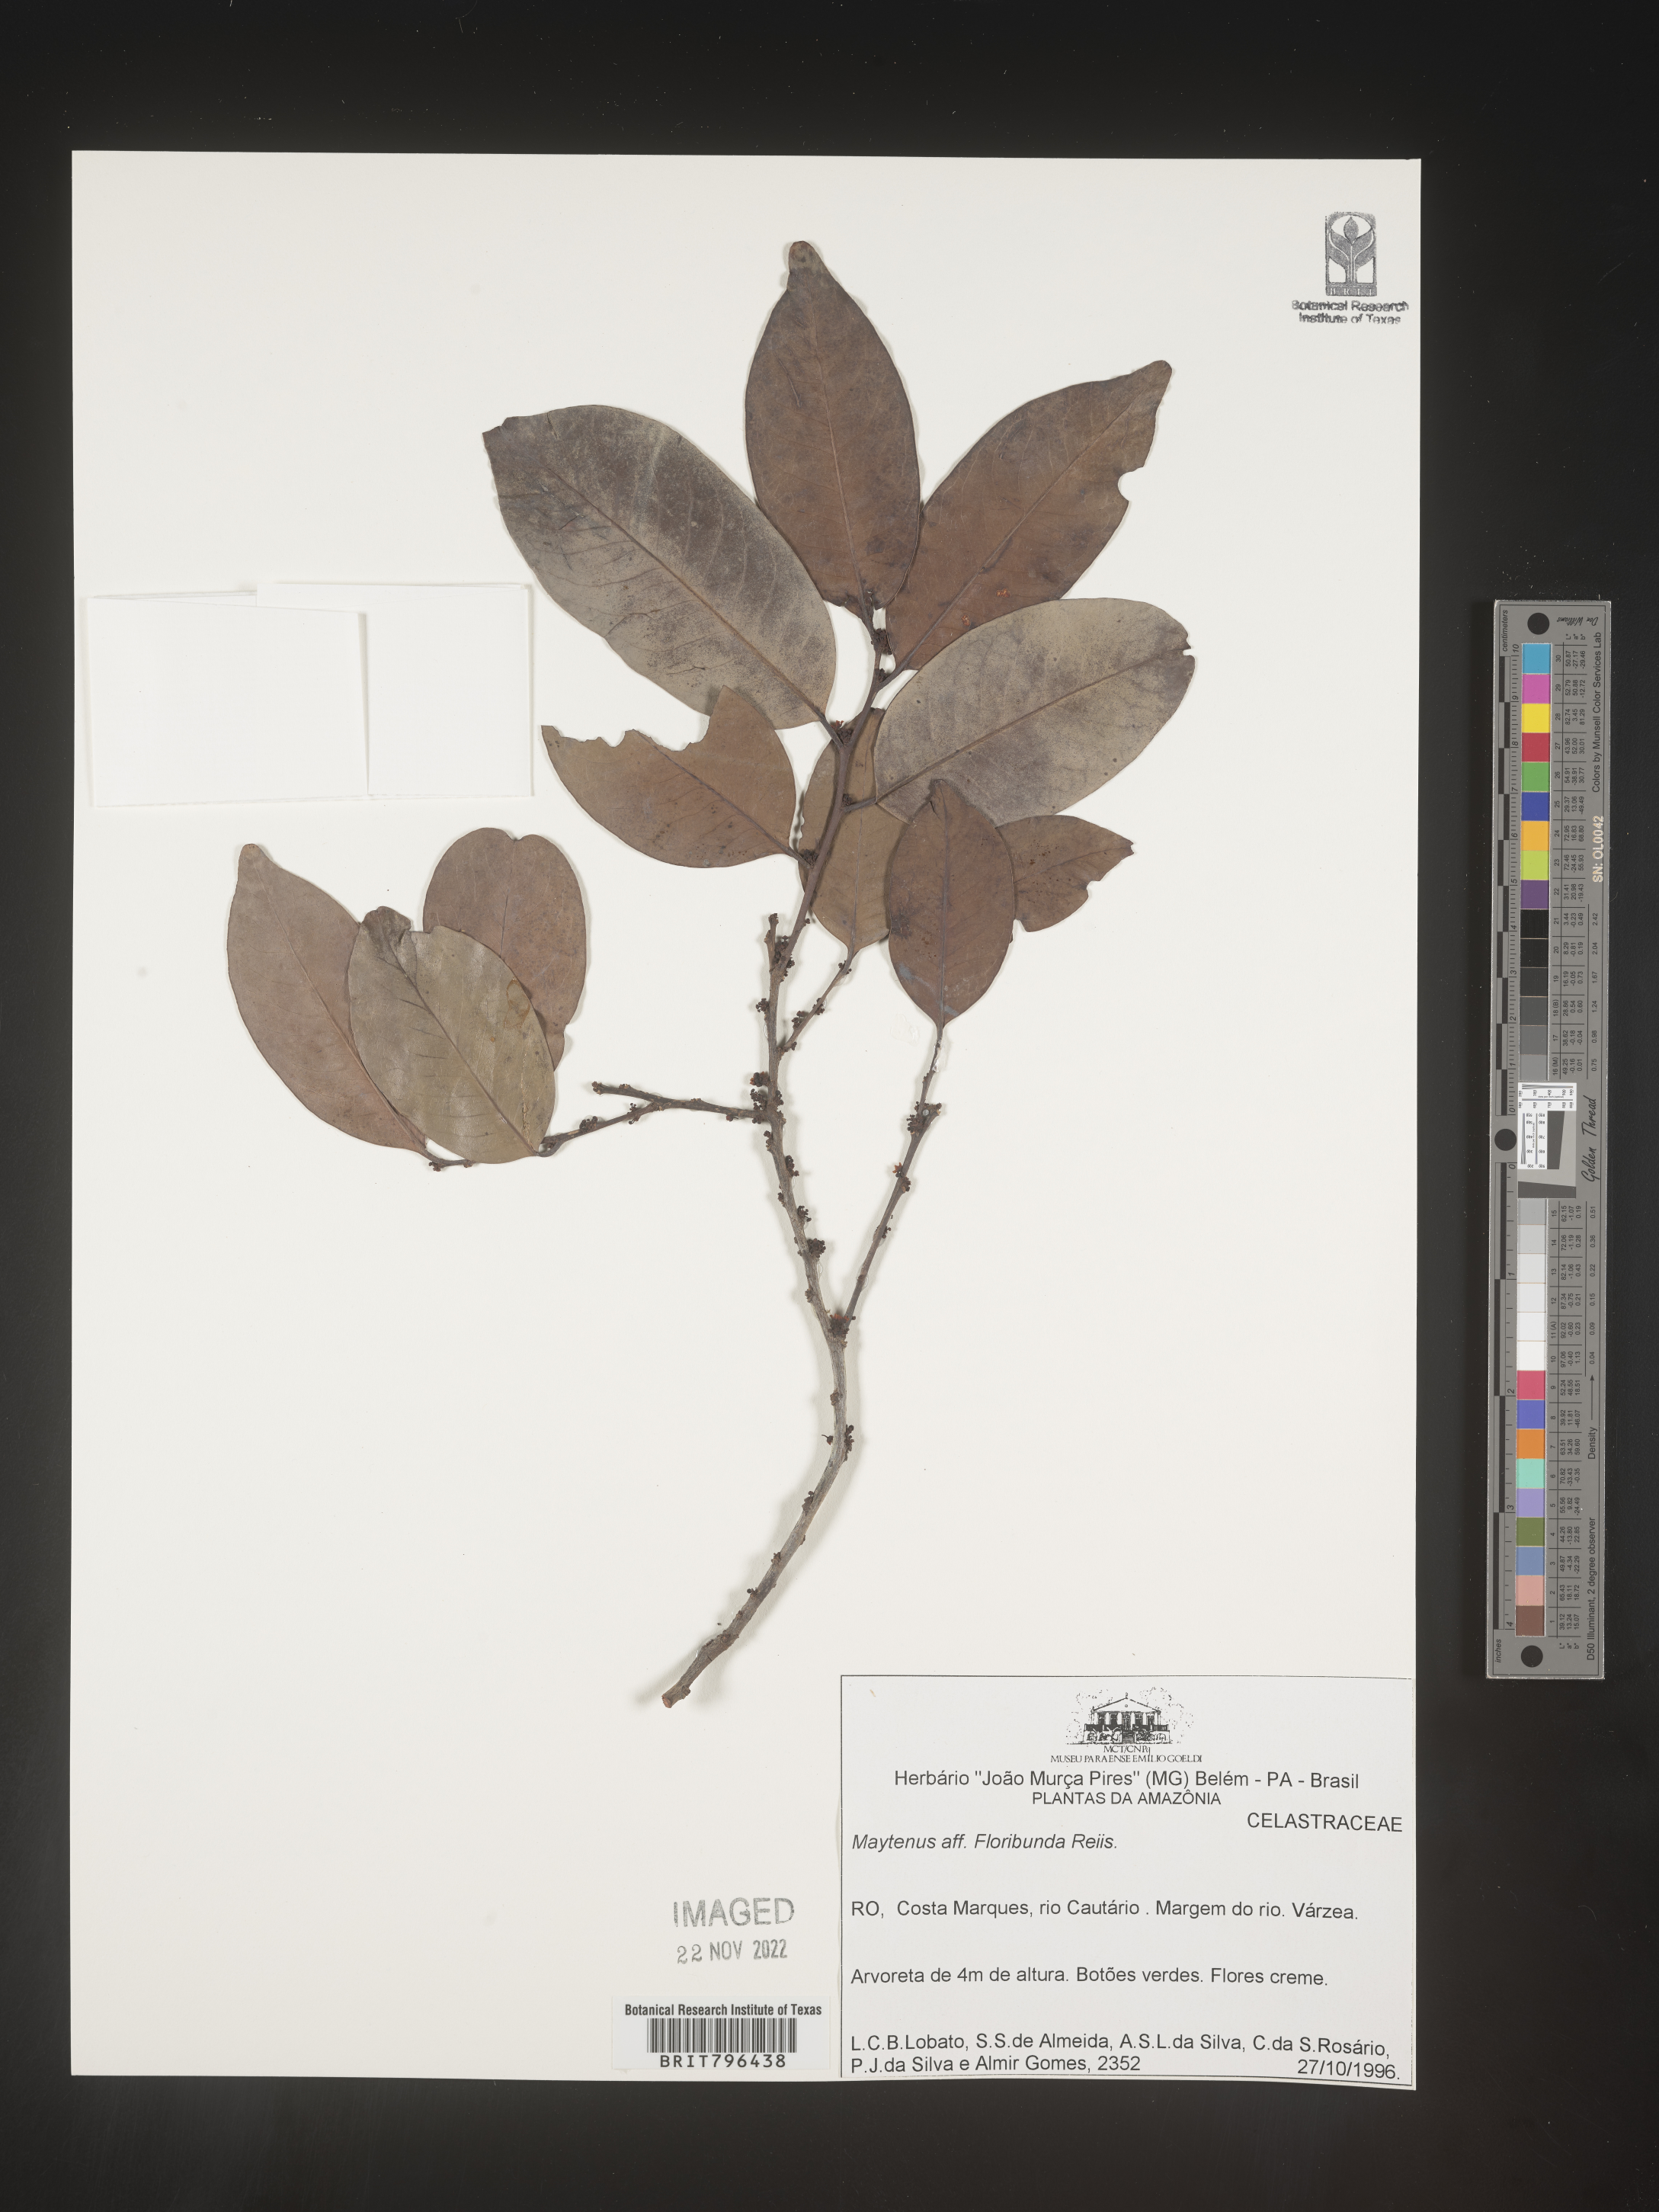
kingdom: Plantae
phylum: Tracheophyta
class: Magnoliopsida
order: Celastrales
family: Celastraceae
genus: Maytenus
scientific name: Maytenus
